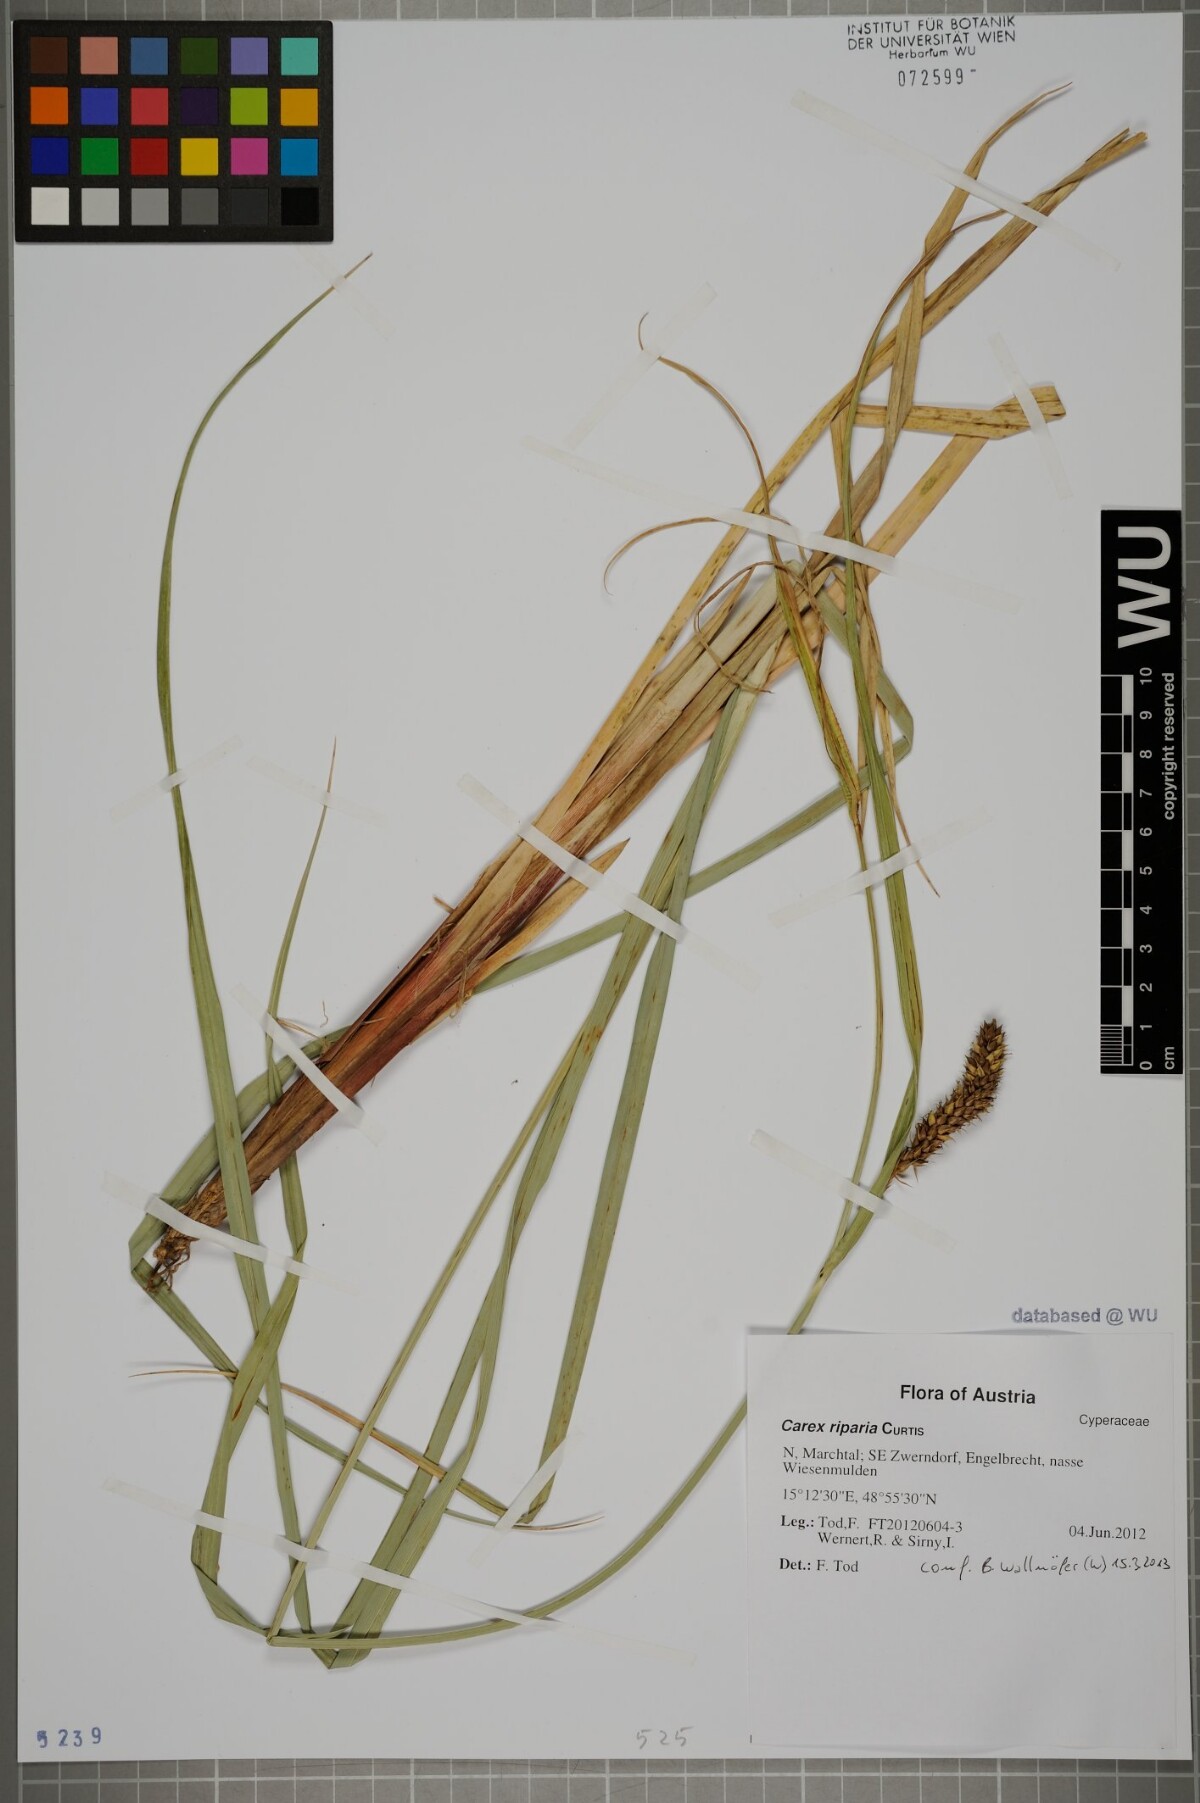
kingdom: Plantae
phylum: Tracheophyta
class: Liliopsida
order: Poales
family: Cyperaceae
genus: Carex
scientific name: Carex riparia
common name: Greater pond-sedge
